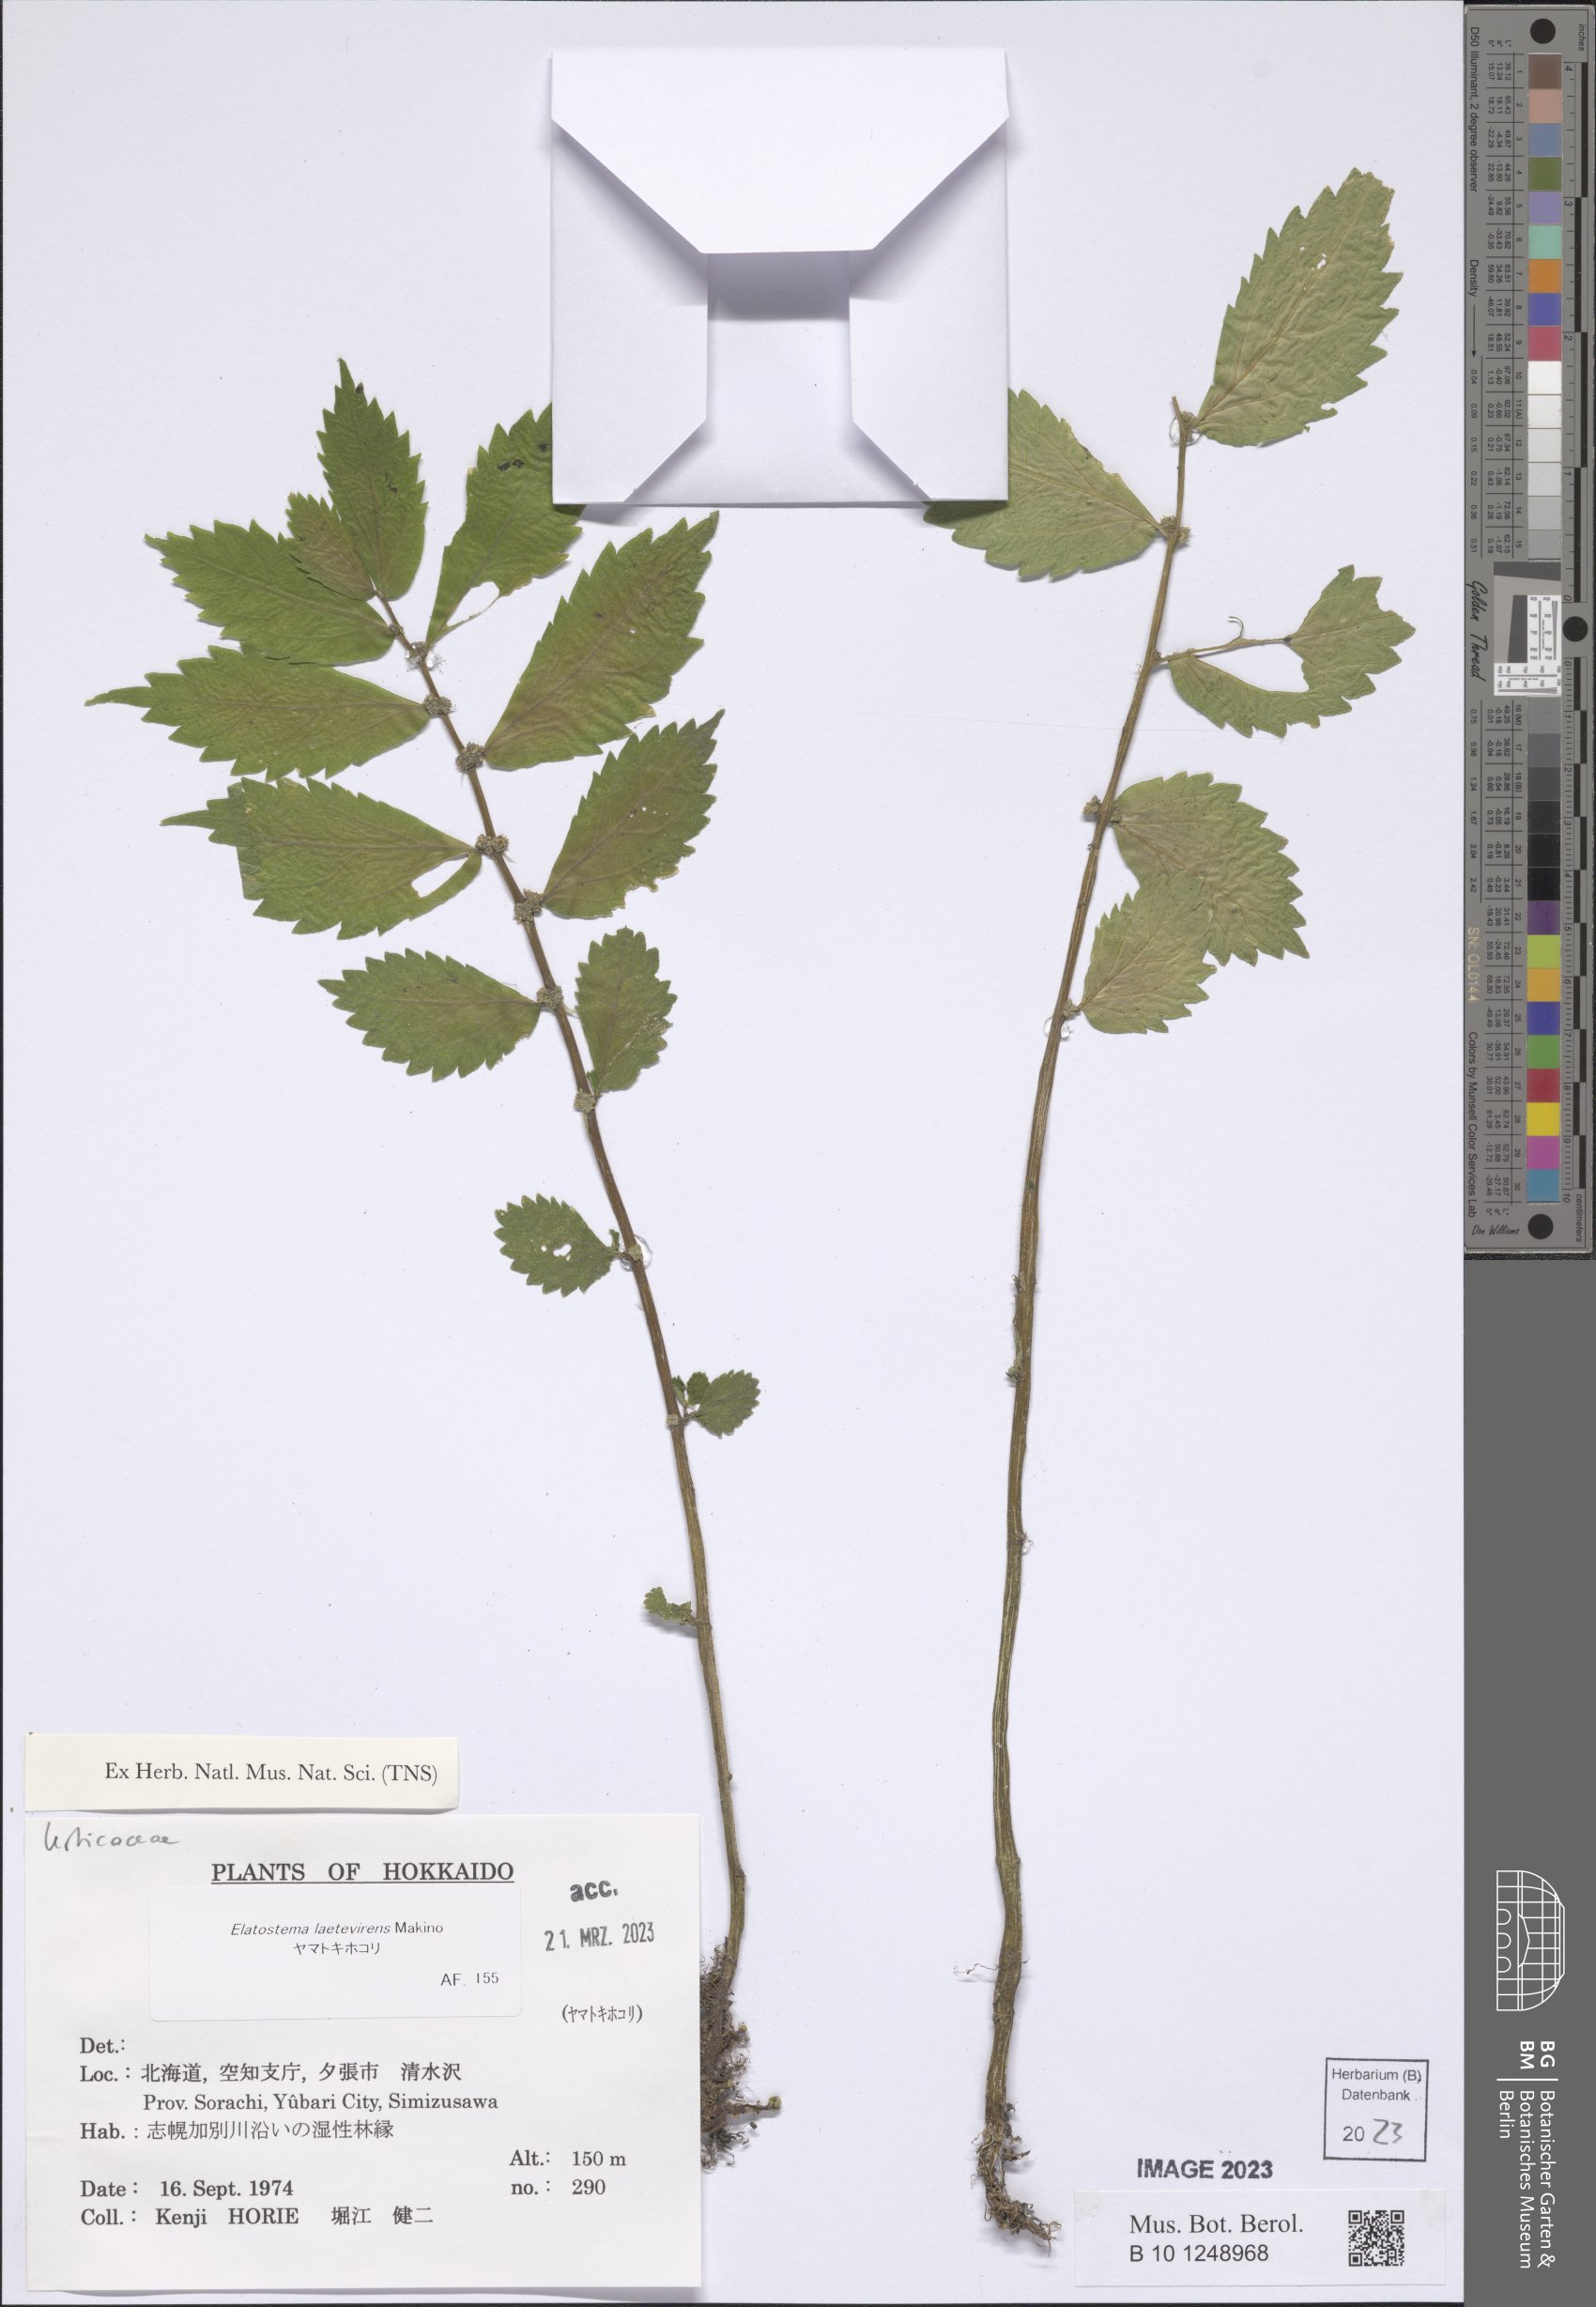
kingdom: Plantae
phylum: Tracheophyta
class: Magnoliopsida
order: Rosales
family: Urticaceae
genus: Elatostema
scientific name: Elatostema laetevirens
